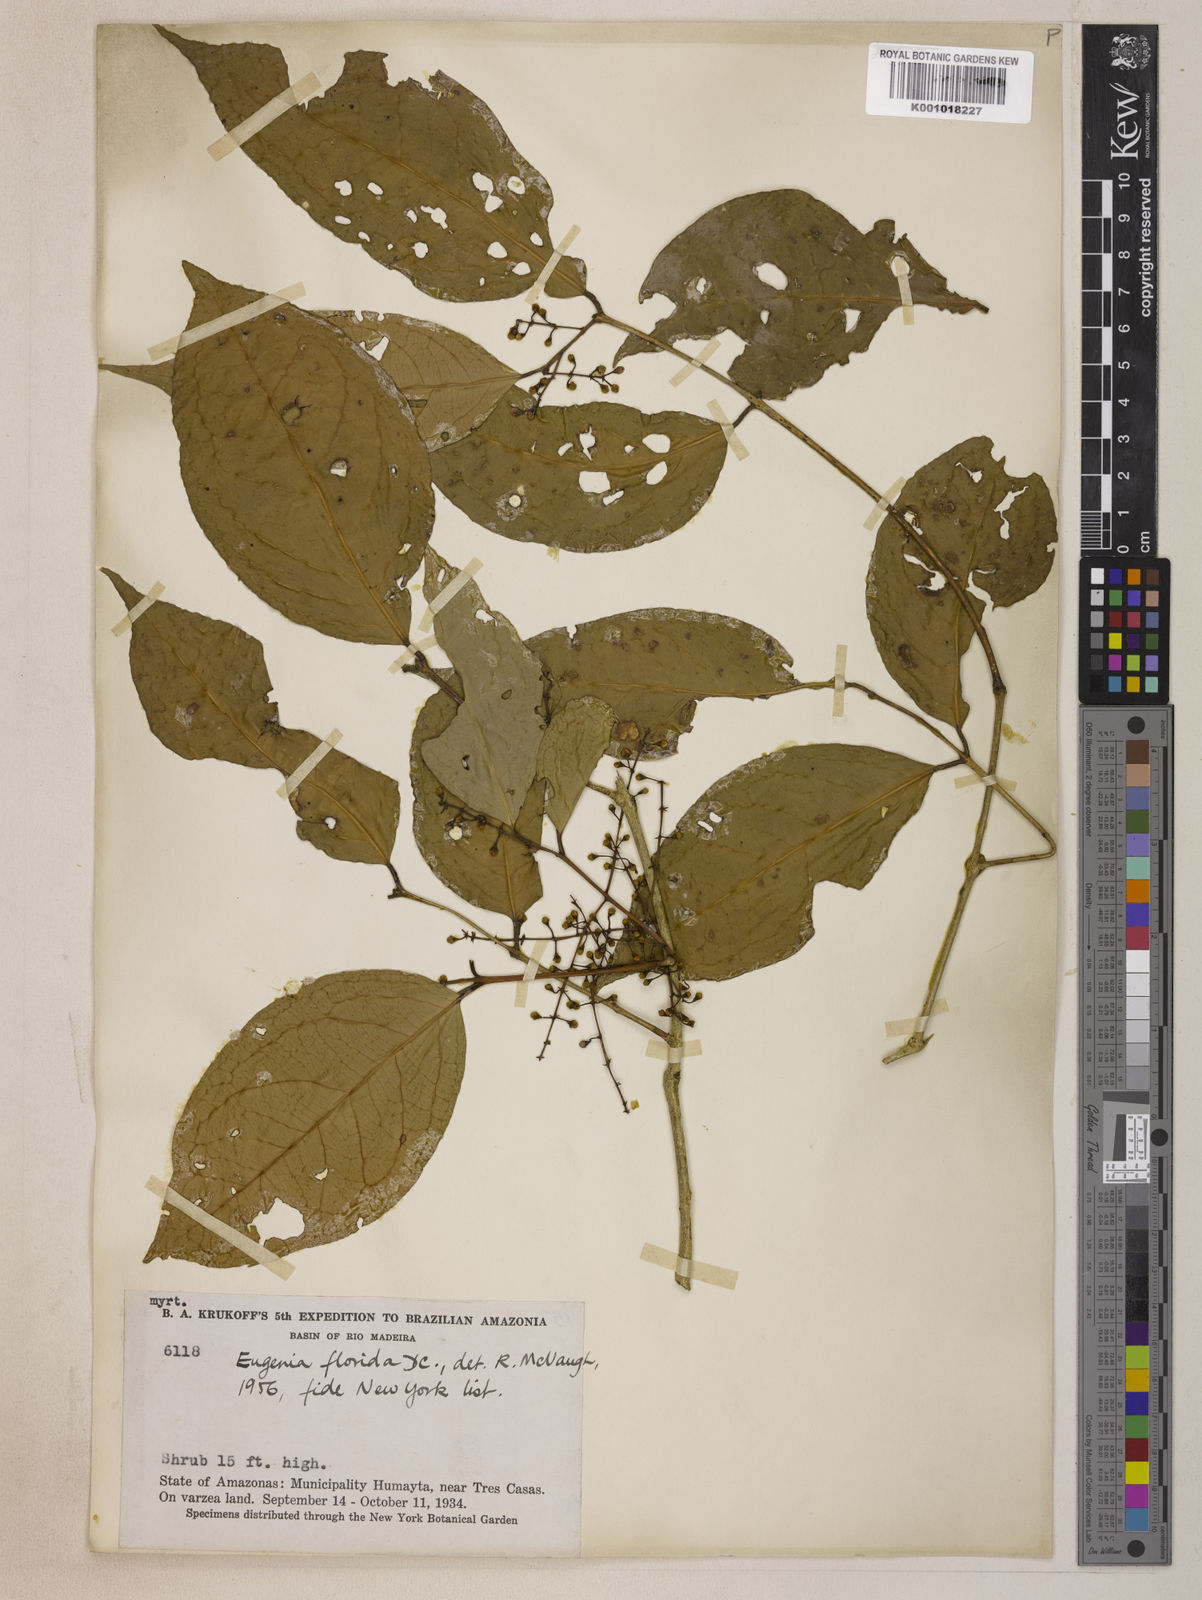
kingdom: Plantae
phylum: Tracheophyta
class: Magnoliopsida
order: Myrtales
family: Myrtaceae
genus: Eugenia
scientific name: Eugenia florida
